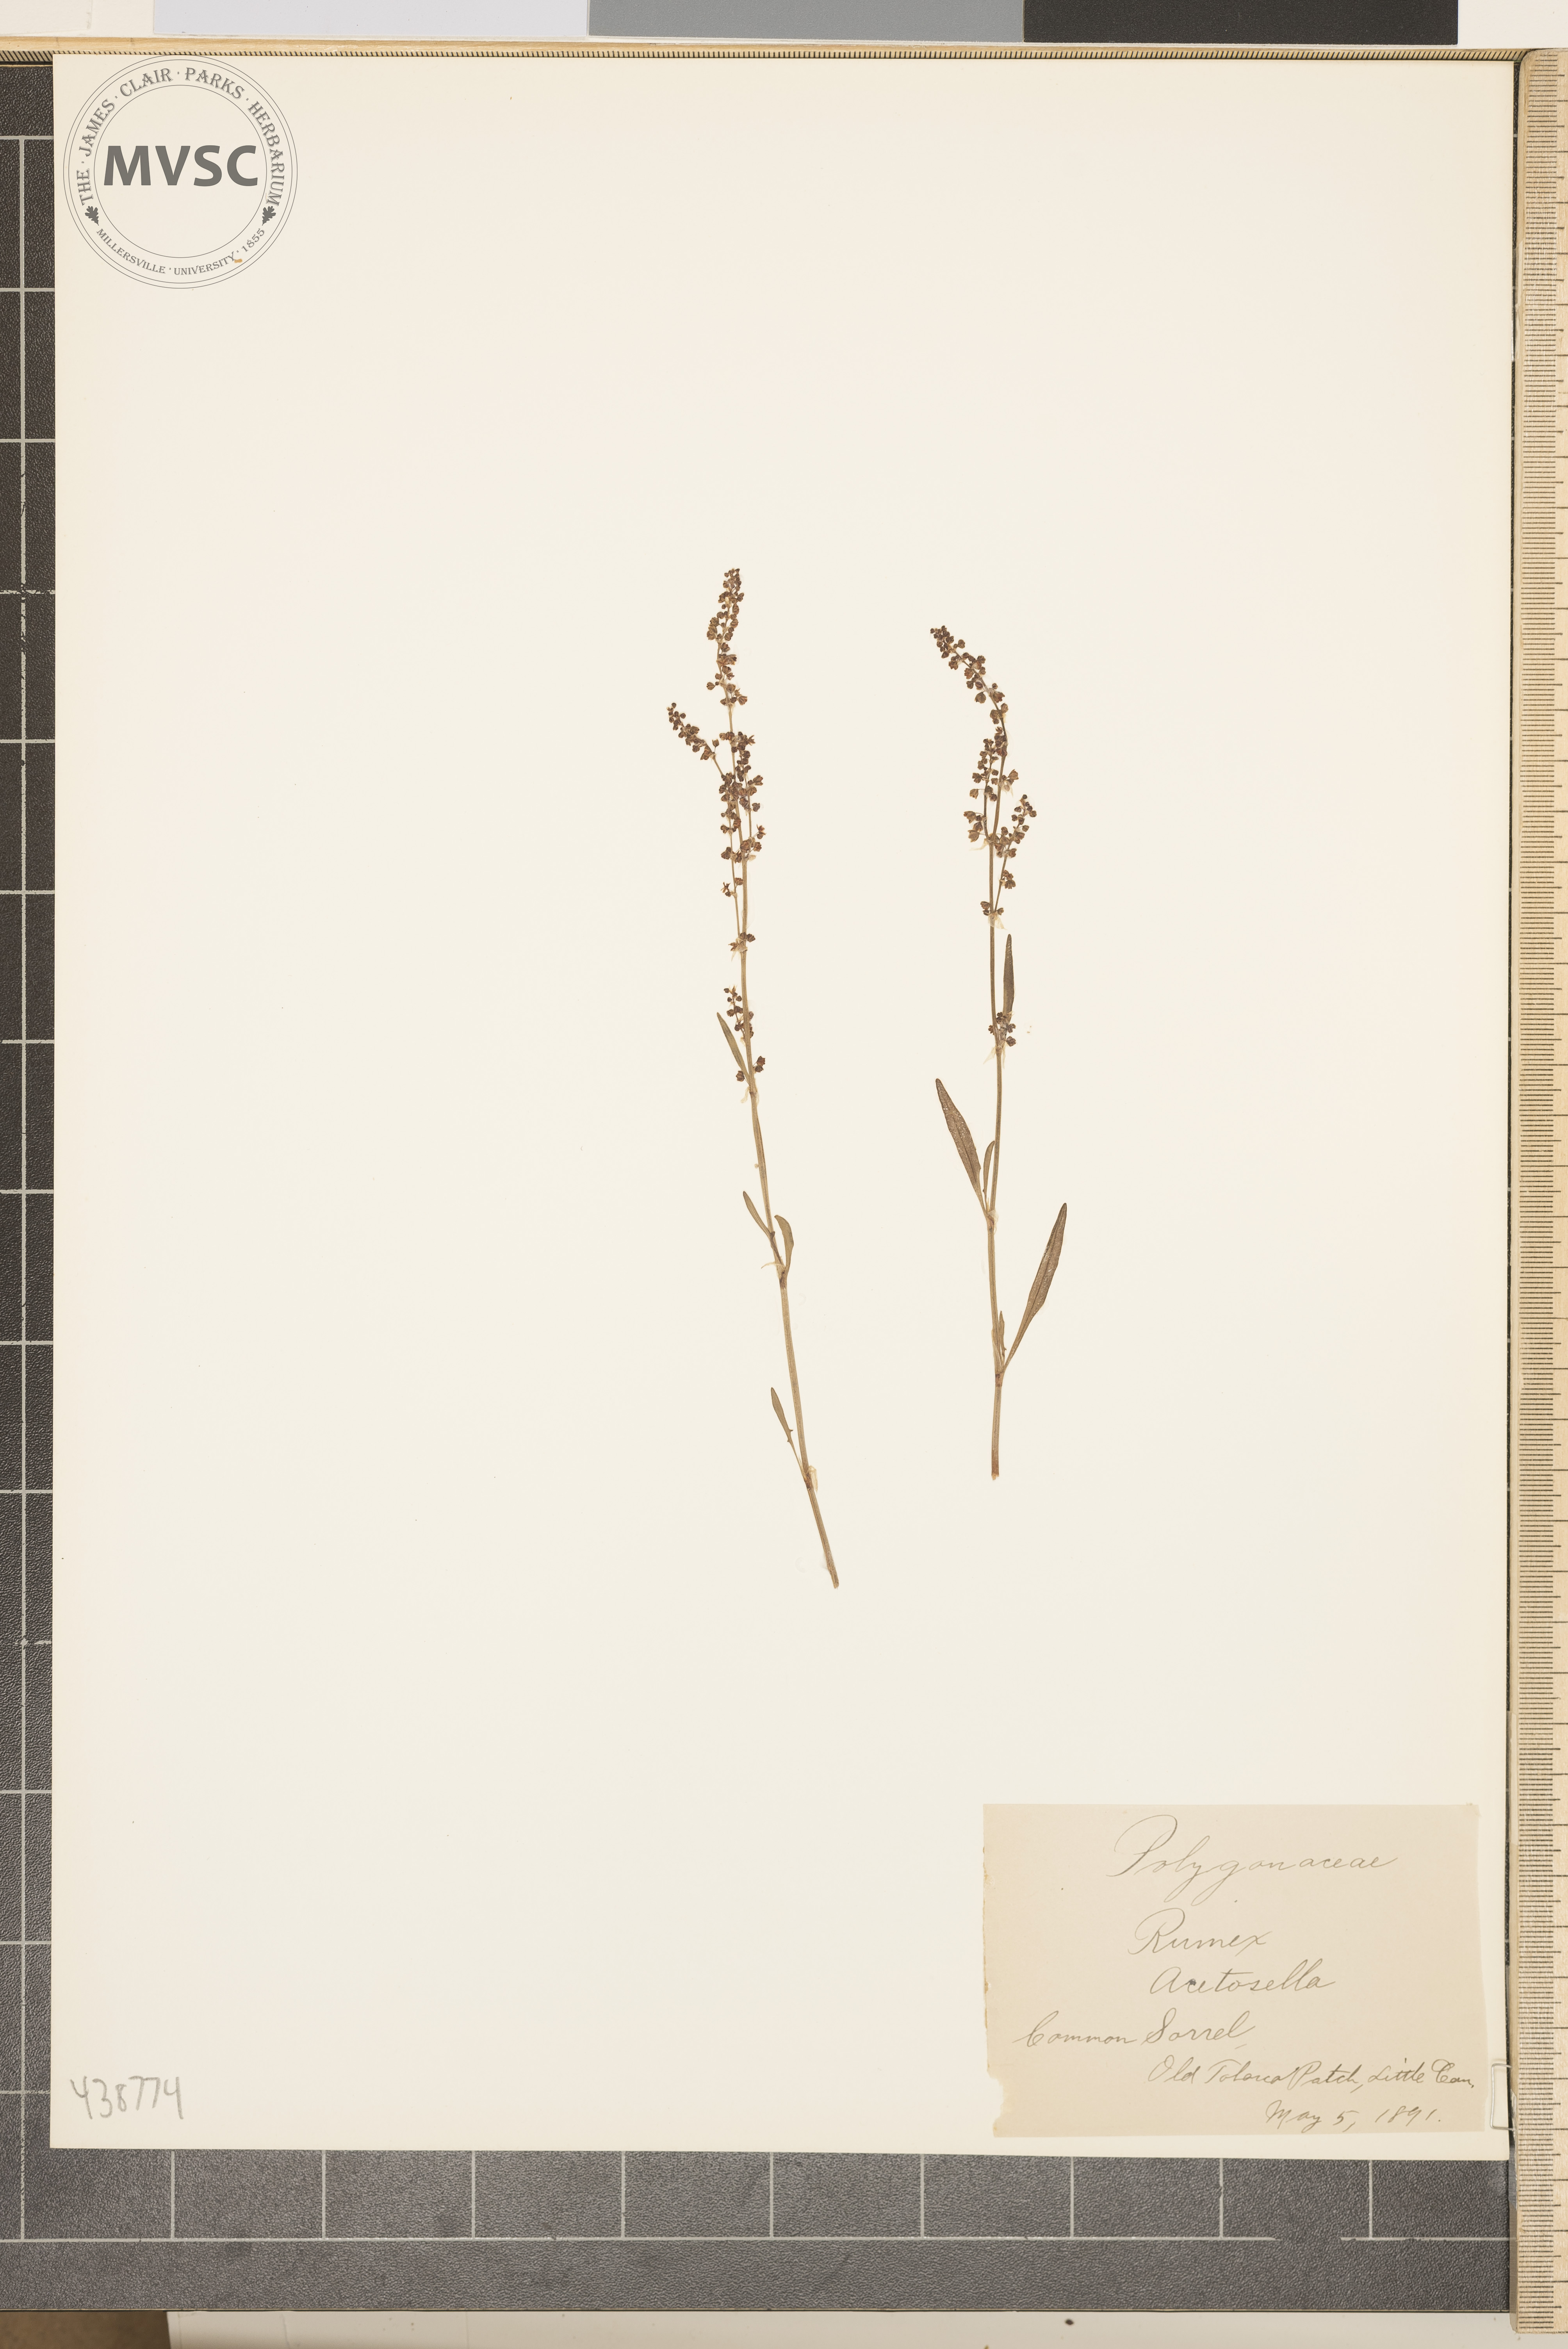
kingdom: Plantae
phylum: Tracheophyta
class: Magnoliopsida
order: Caryophyllales
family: Polygonaceae
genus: Rumex
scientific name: Rumex acetosella
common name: Common sorrel
